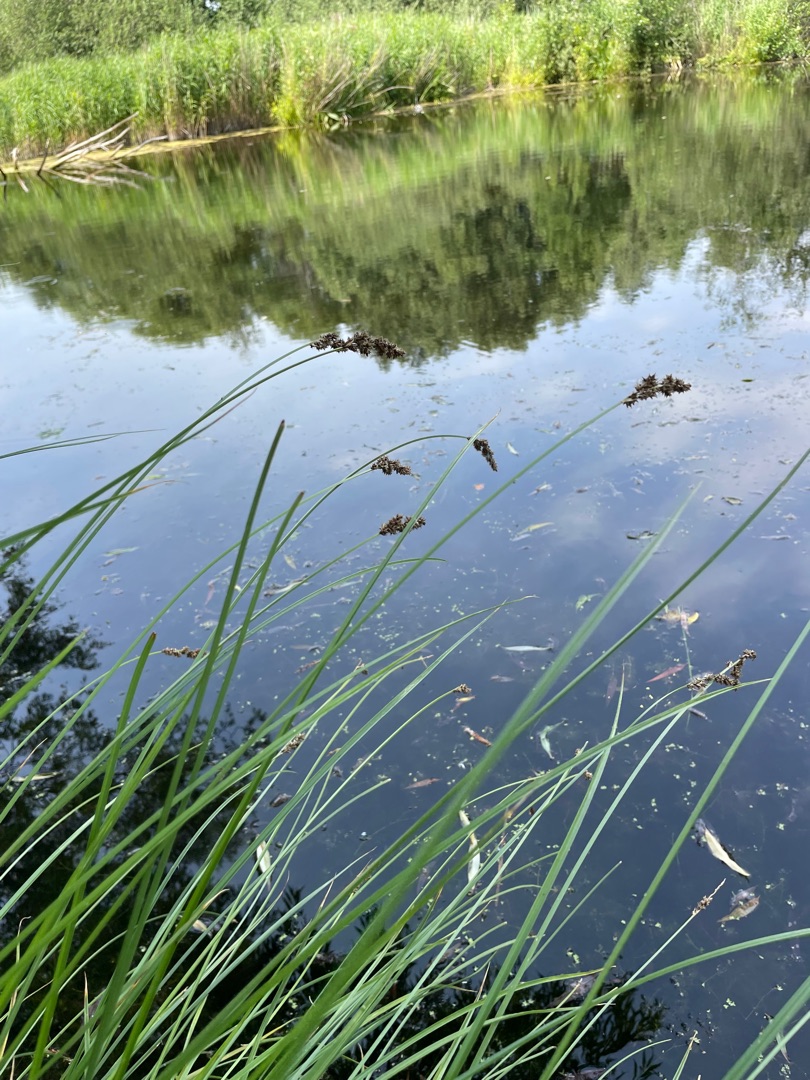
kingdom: Plantae
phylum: Tracheophyta
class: Liliopsida
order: Poales
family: Cyperaceae
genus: Carex
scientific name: Carex paniculata
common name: Top-star
